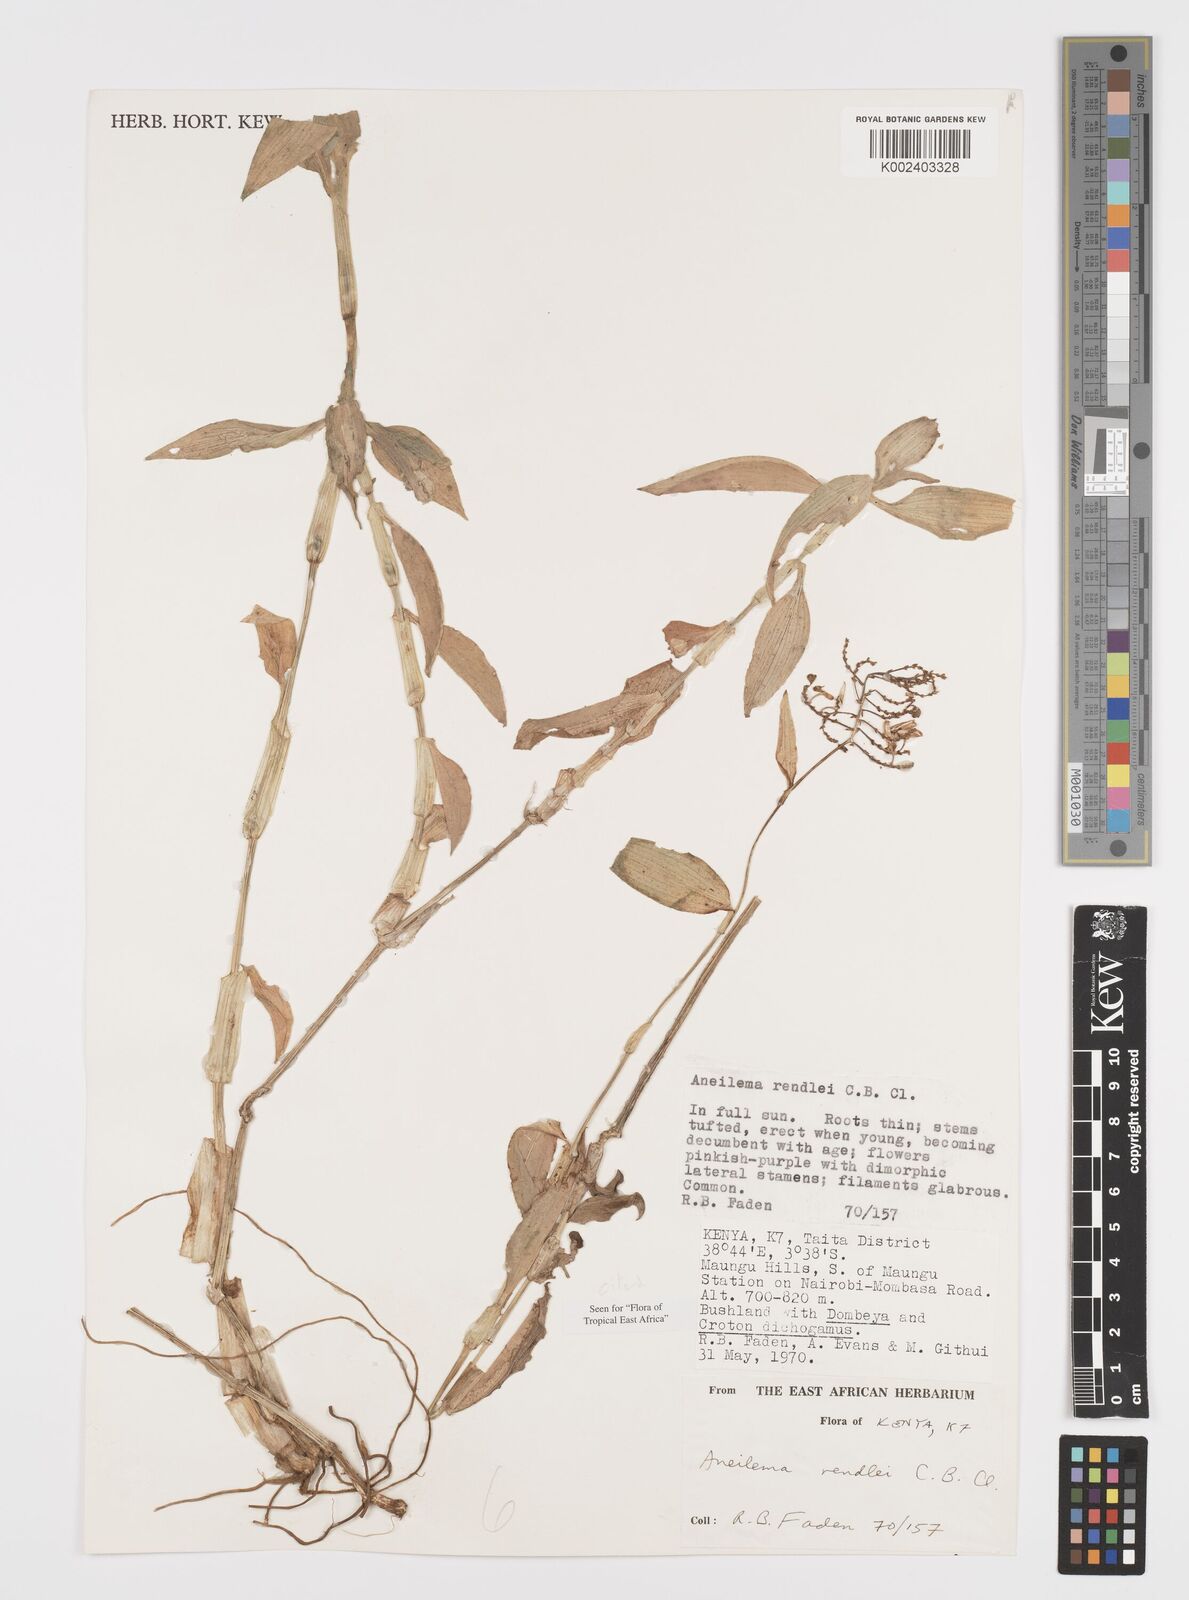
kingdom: Plantae
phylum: Tracheophyta
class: Liliopsida
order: Commelinales
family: Commelinaceae
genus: Aneilema
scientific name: Aneilema rendlei
